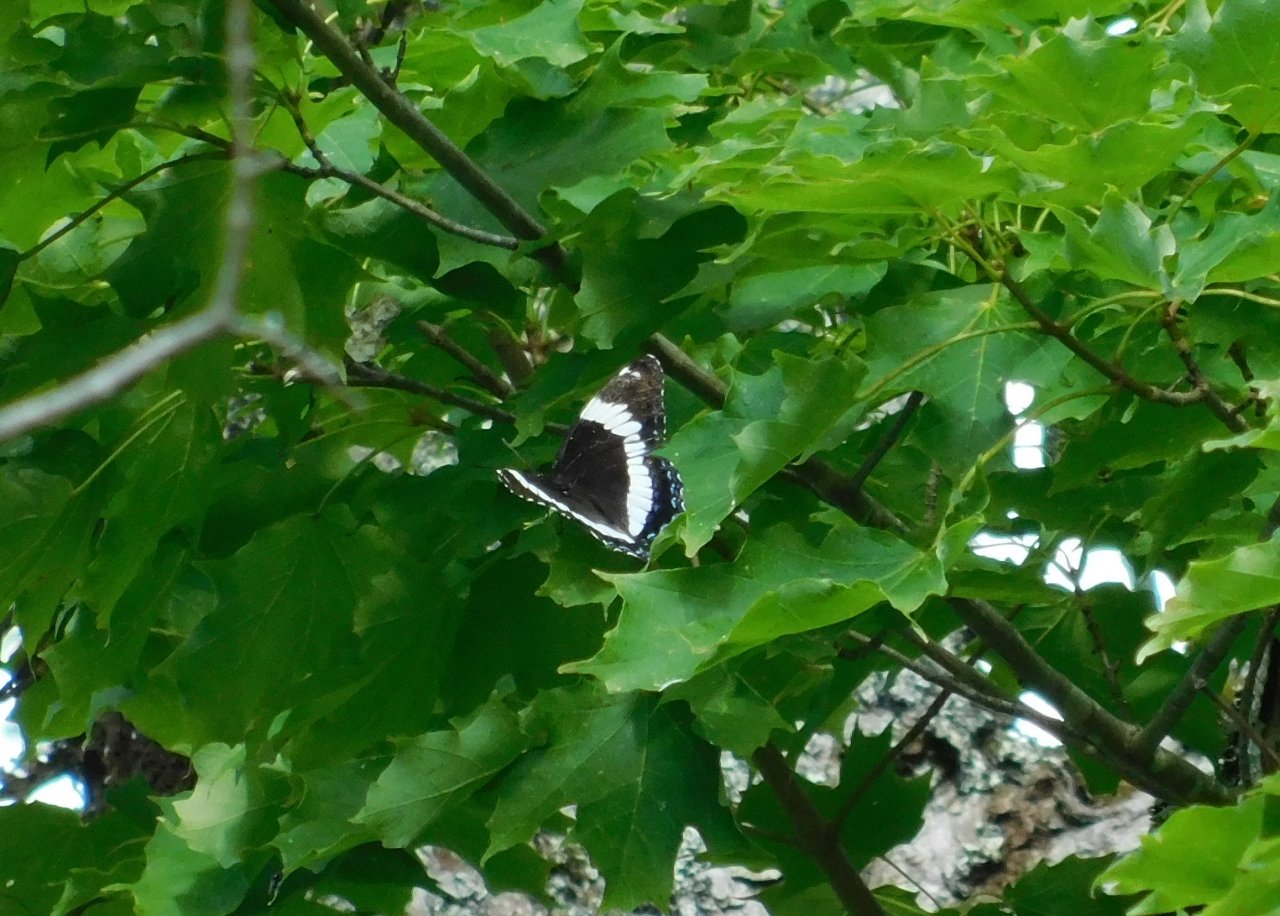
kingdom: Animalia
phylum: Arthropoda
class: Insecta
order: Lepidoptera
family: Nymphalidae
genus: Limenitis
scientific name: Limenitis arthemis
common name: Red-spotted Admiral
